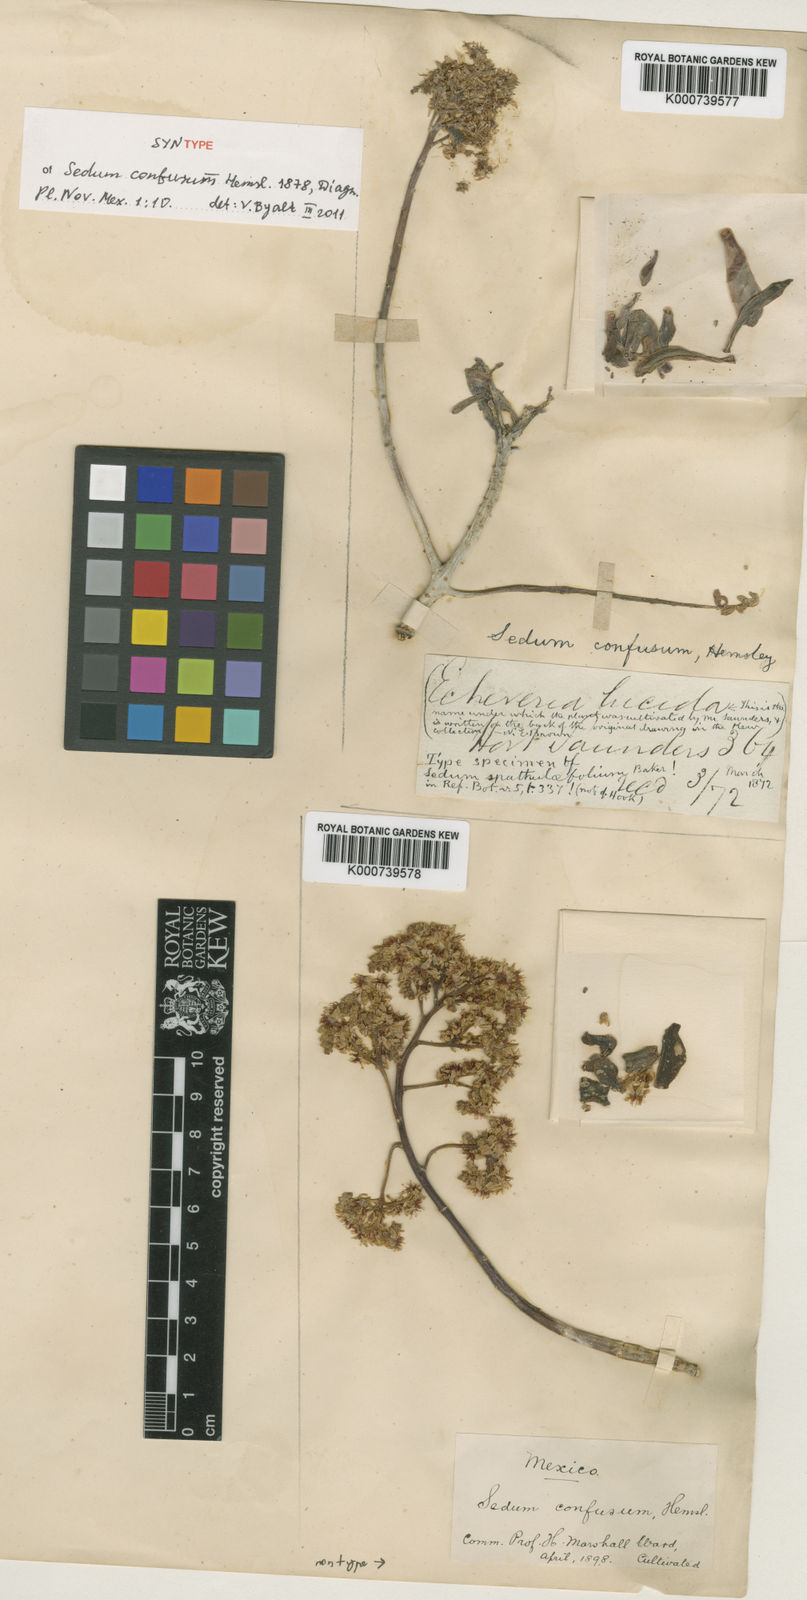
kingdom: Plantae
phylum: Tracheophyta
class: Magnoliopsida
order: Saxifragales
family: Crassulaceae
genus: Sedum
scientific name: Sedum confusum
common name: Lesser mexican-stonecrop
